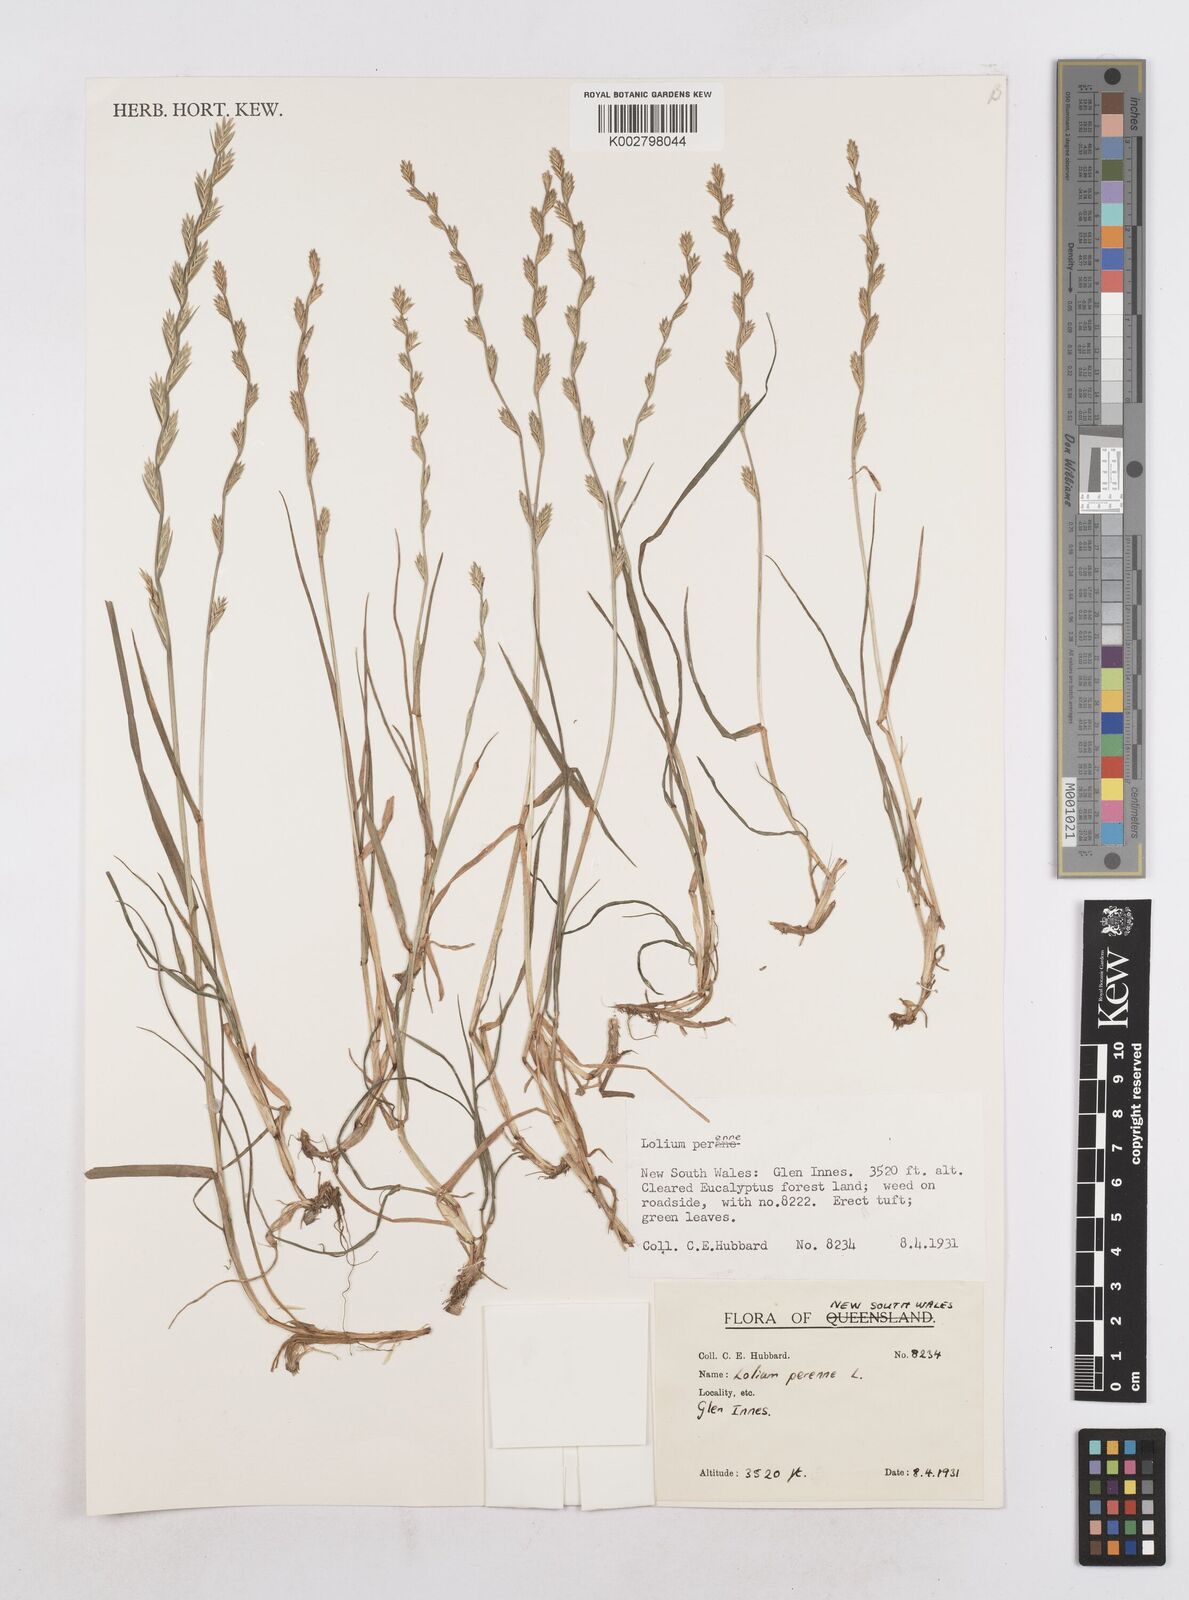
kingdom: Plantae
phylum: Tracheophyta
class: Liliopsida
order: Poales
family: Poaceae
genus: Lolium
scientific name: Lolium
